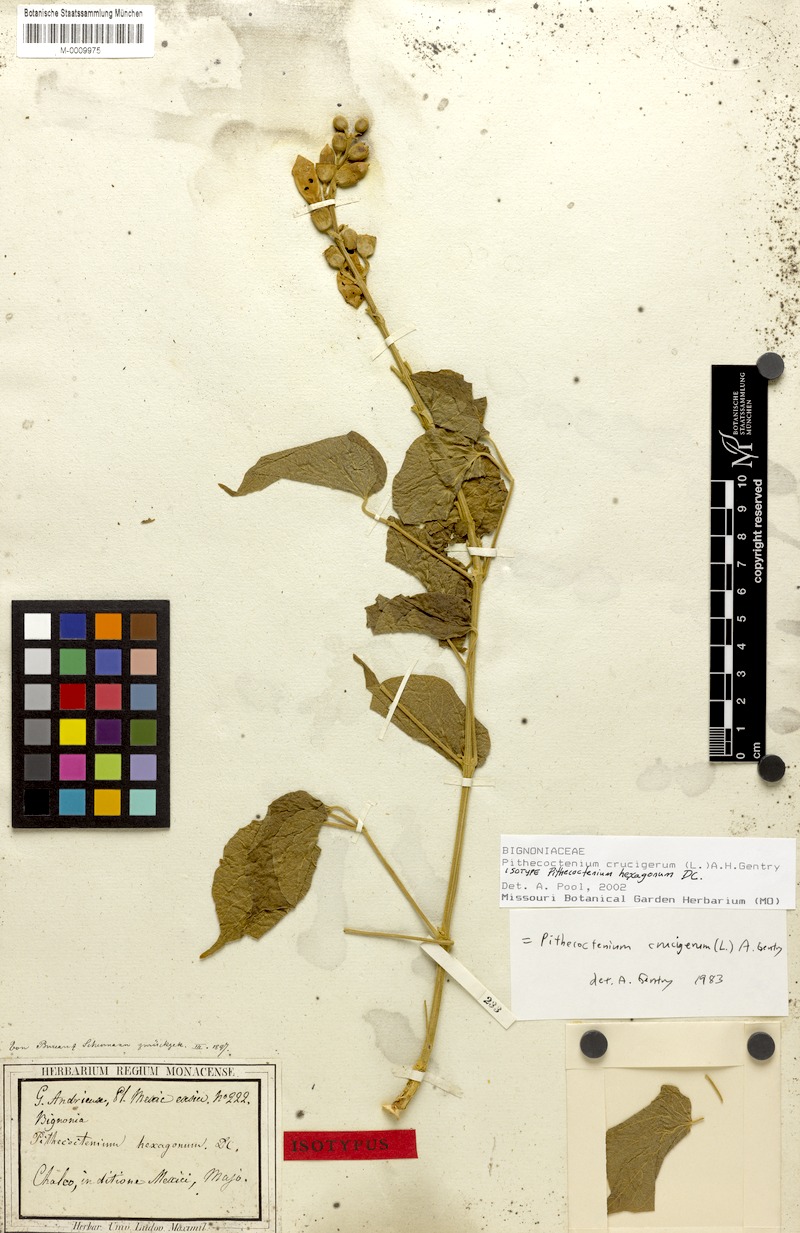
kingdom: Plantae
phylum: Tracheophyta
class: Magnoliopsida
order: Lamiales
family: Bignoniaceae
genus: Amphilophium
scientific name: Amphilophium crucigerum
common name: Monkey comb
